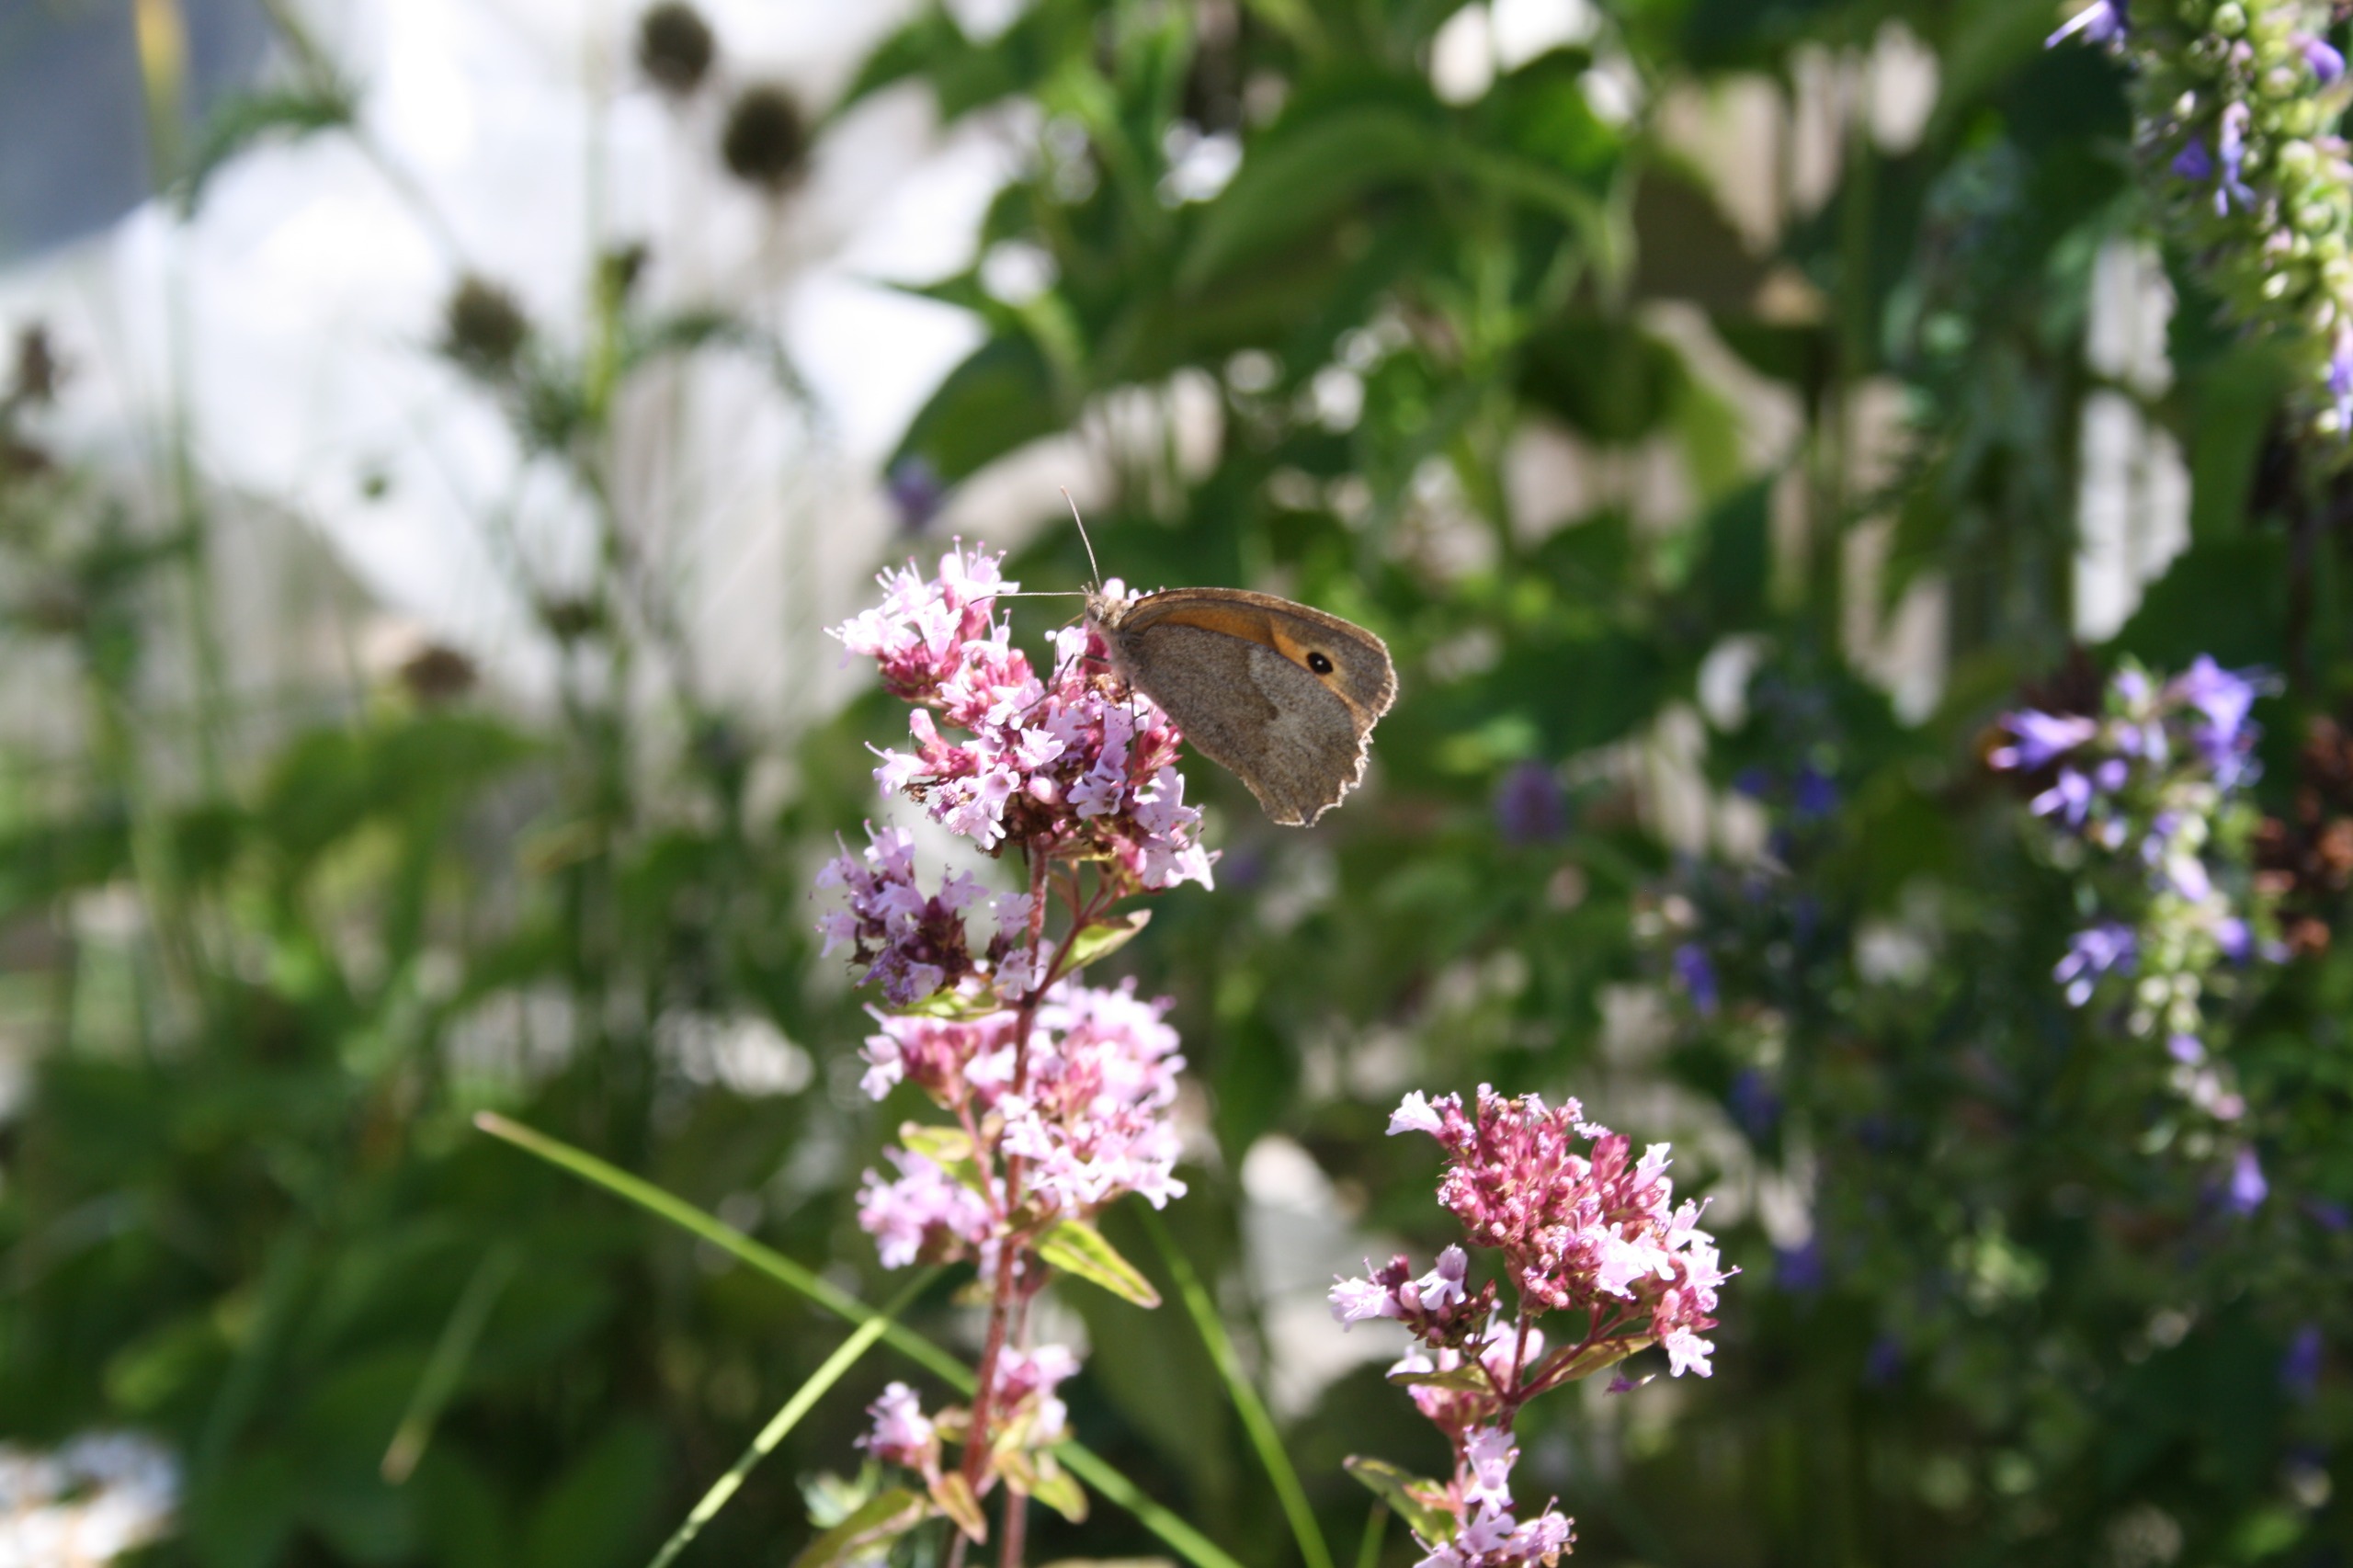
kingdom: Animalia
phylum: Arthropoda
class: Insecta
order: Lepidoptera
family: Nymphalidae
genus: Maniola
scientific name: Maniola jurtina
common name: Græsrandøje
